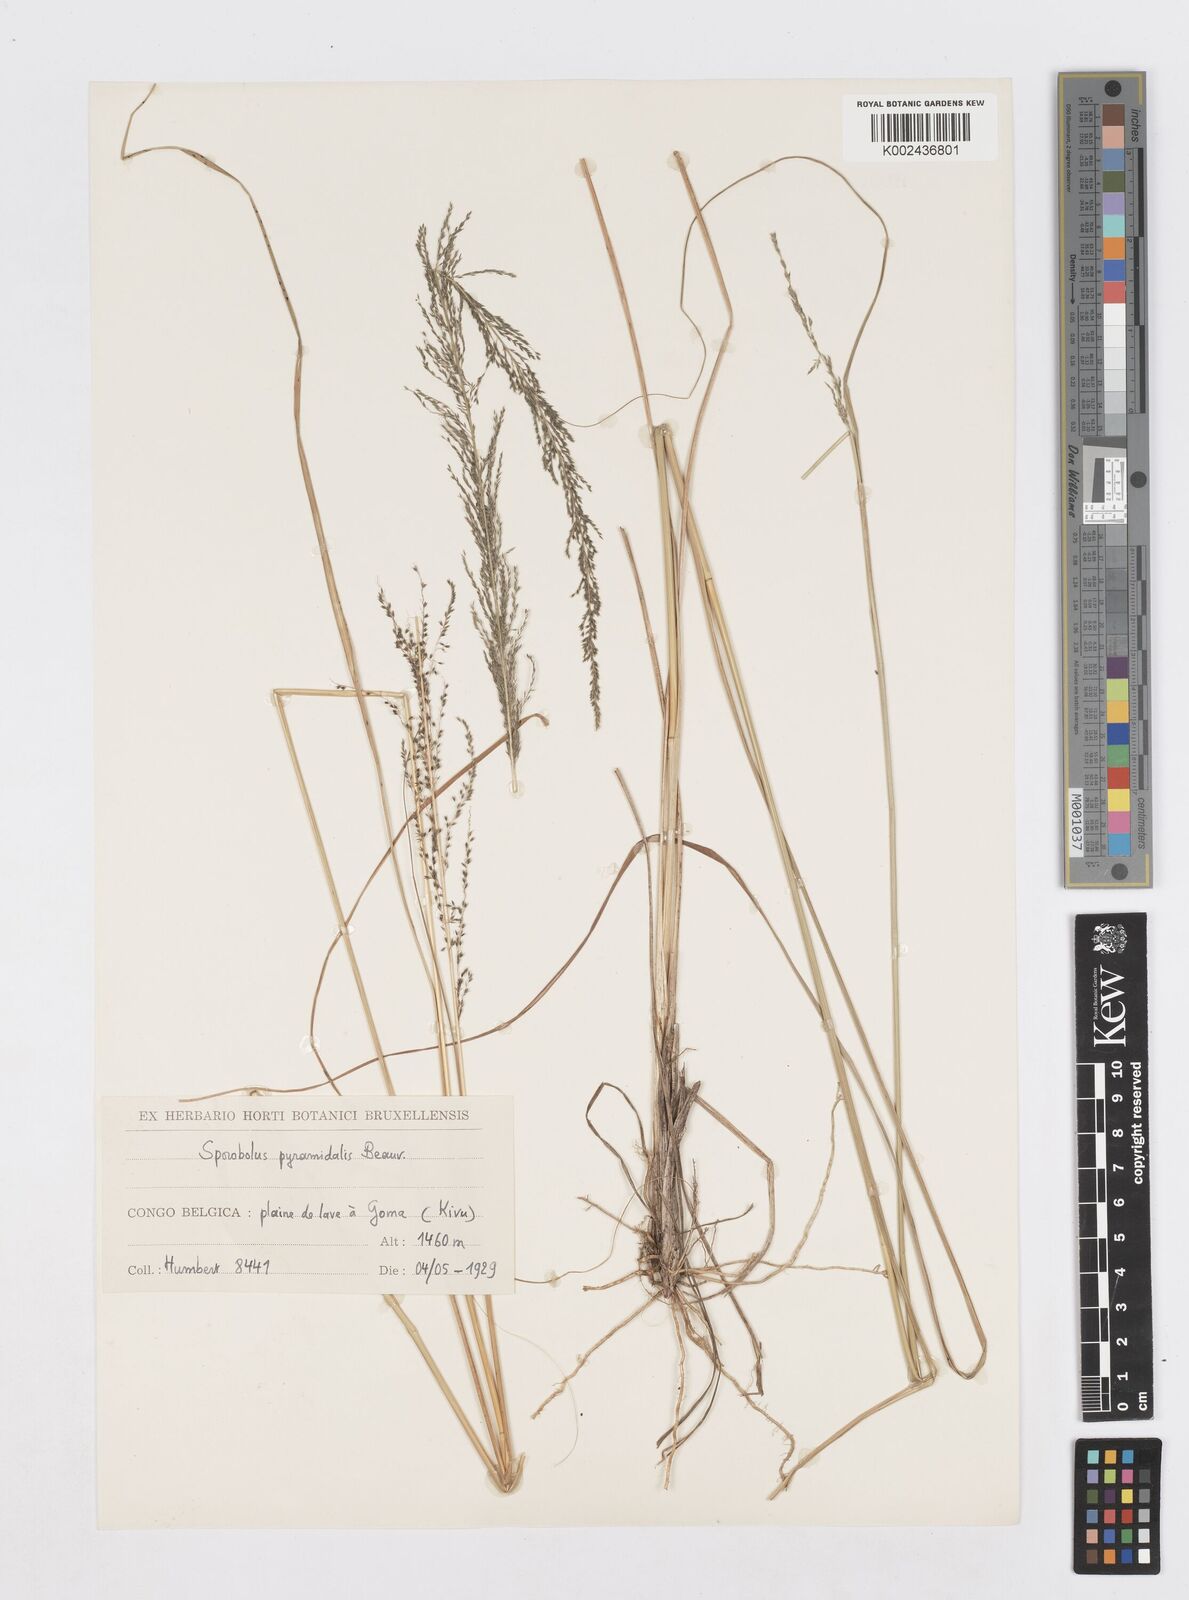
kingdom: Plantae
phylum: Tracheophyta
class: Liliopsida
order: Poales
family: Poaceae
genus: Sporobolus
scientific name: Sporobolus pyramidalis
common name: West indian dropseed
